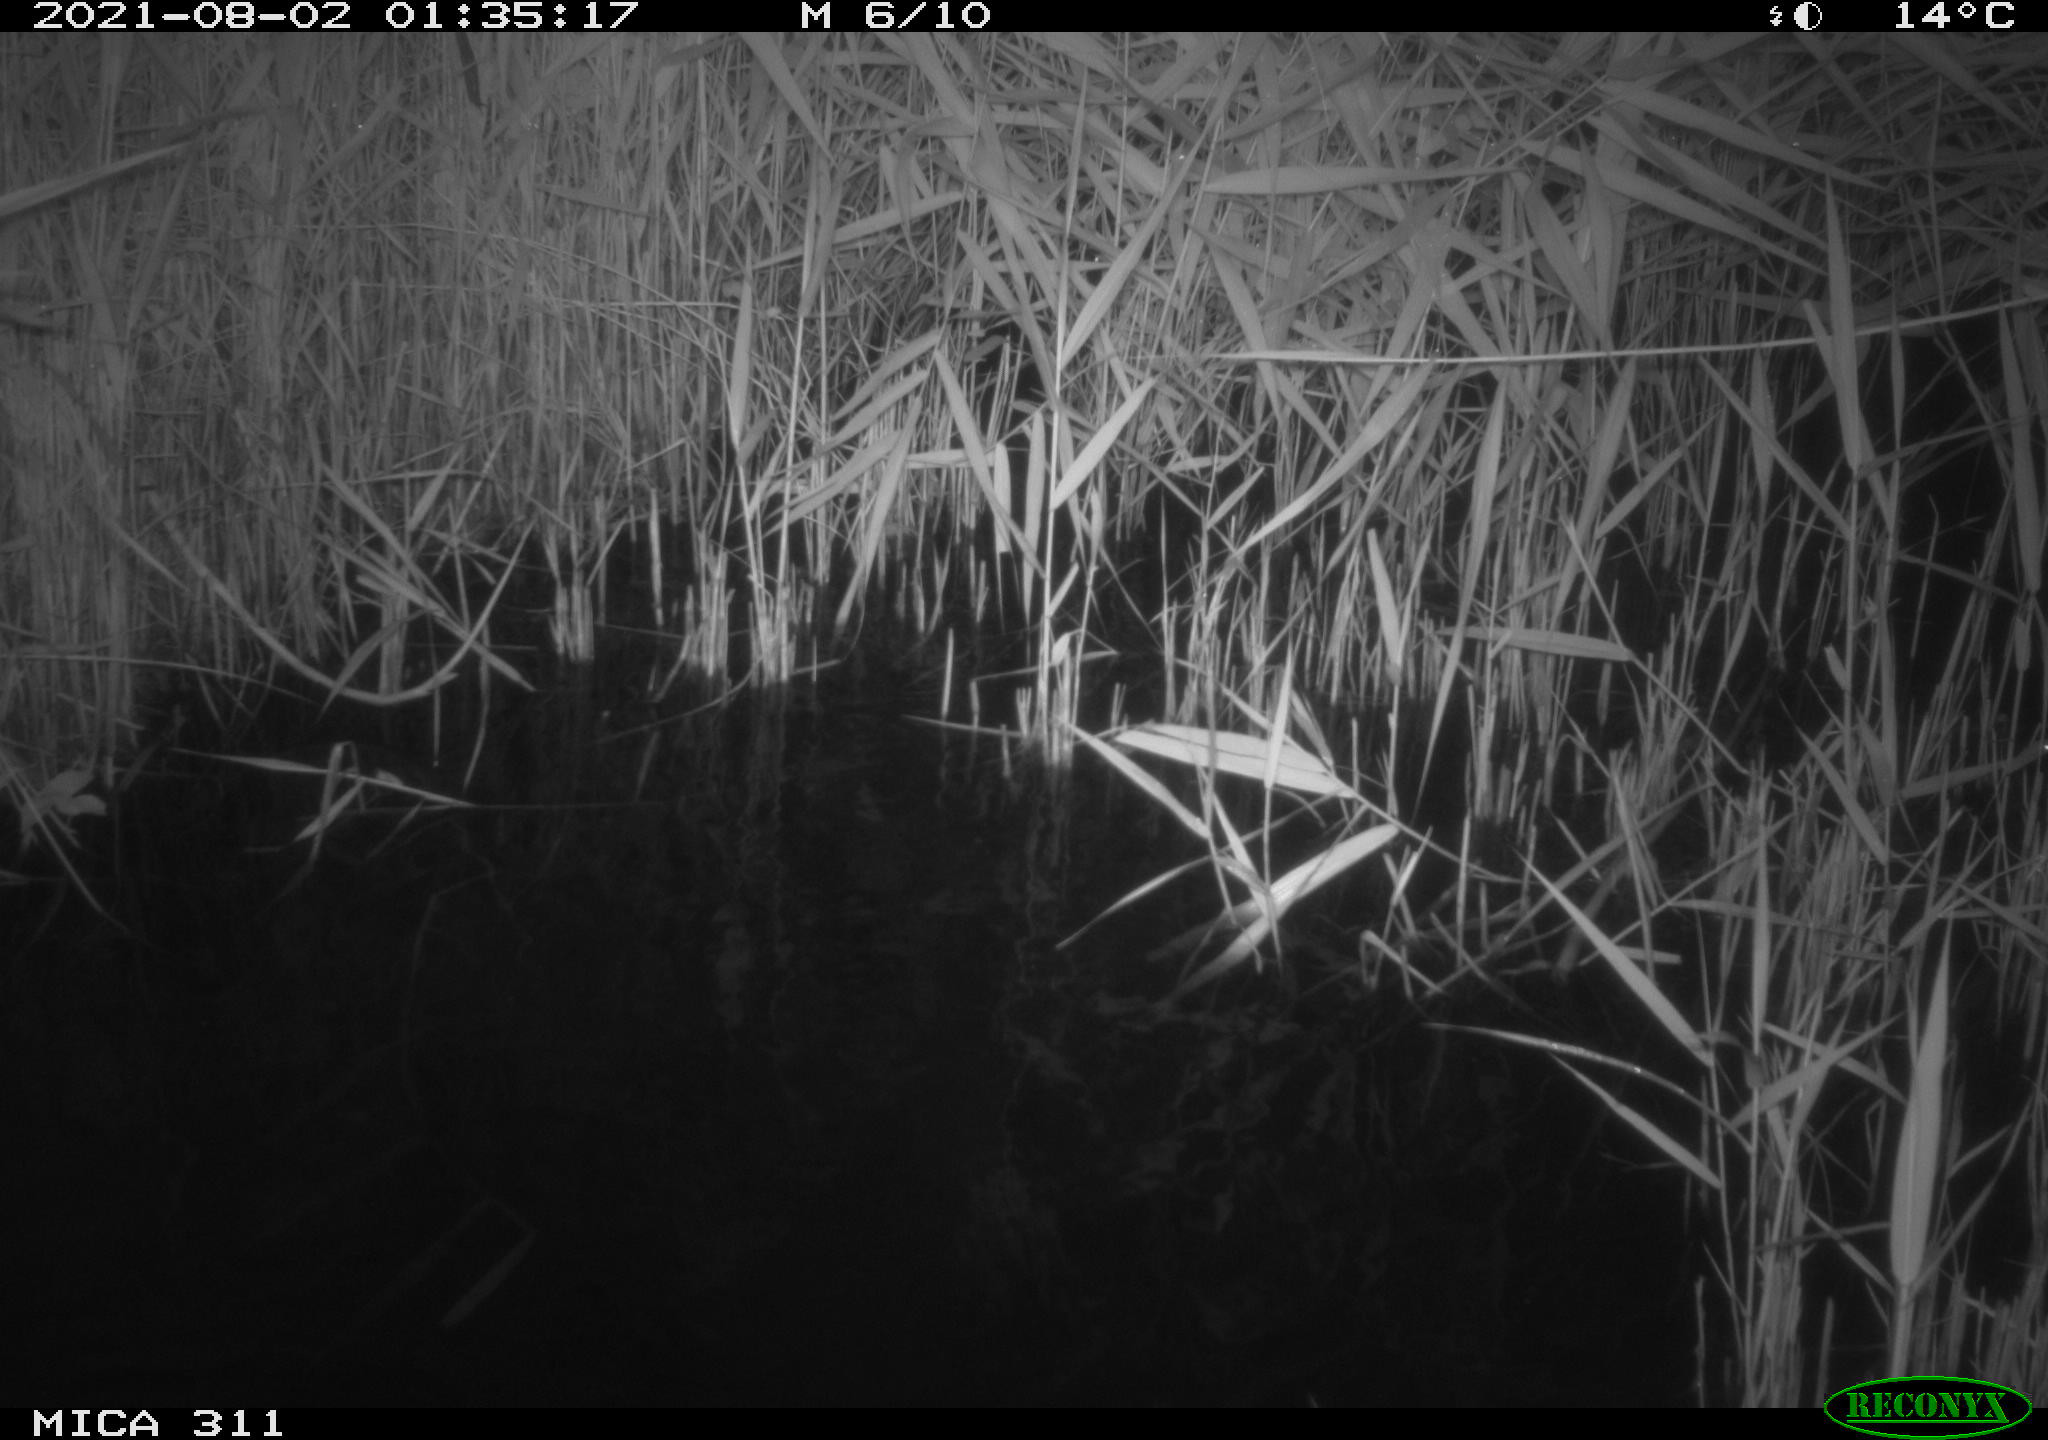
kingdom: Animalia
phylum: Chordata
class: Mammalia
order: Rodentia
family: Muridae
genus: Rattus
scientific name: Rattus norvegicus
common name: Brown rat
